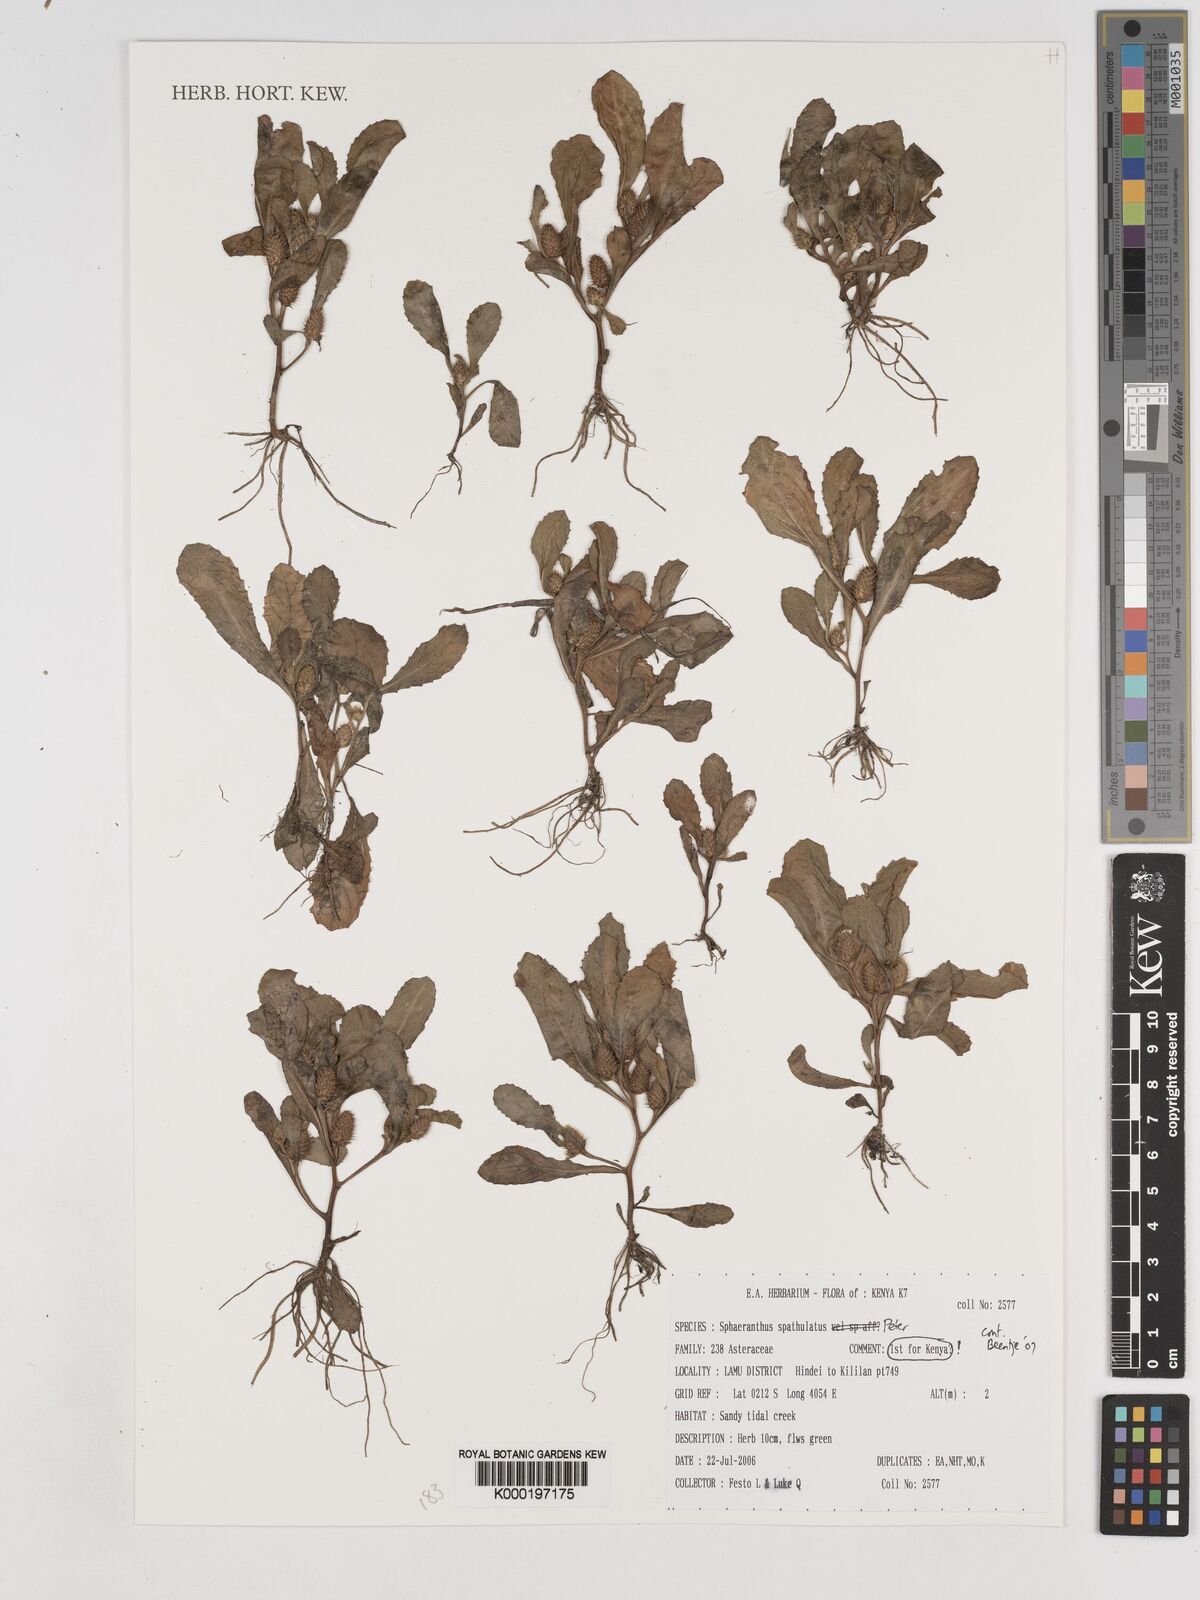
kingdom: Plantae
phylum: Tracheophyta
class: Magnoliopsida
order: Asterales
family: Asteraceae
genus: Sphaeranthus
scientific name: Sphaeranthus spathulatus
